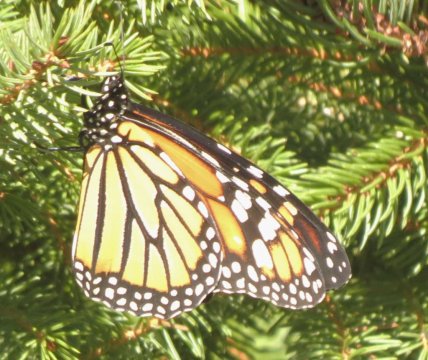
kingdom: Animalia
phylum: Arthropoda
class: Insecta
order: Lepidoptera
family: Nymphalidae
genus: Danaus
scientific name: Danaus plexippus
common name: Monarch
